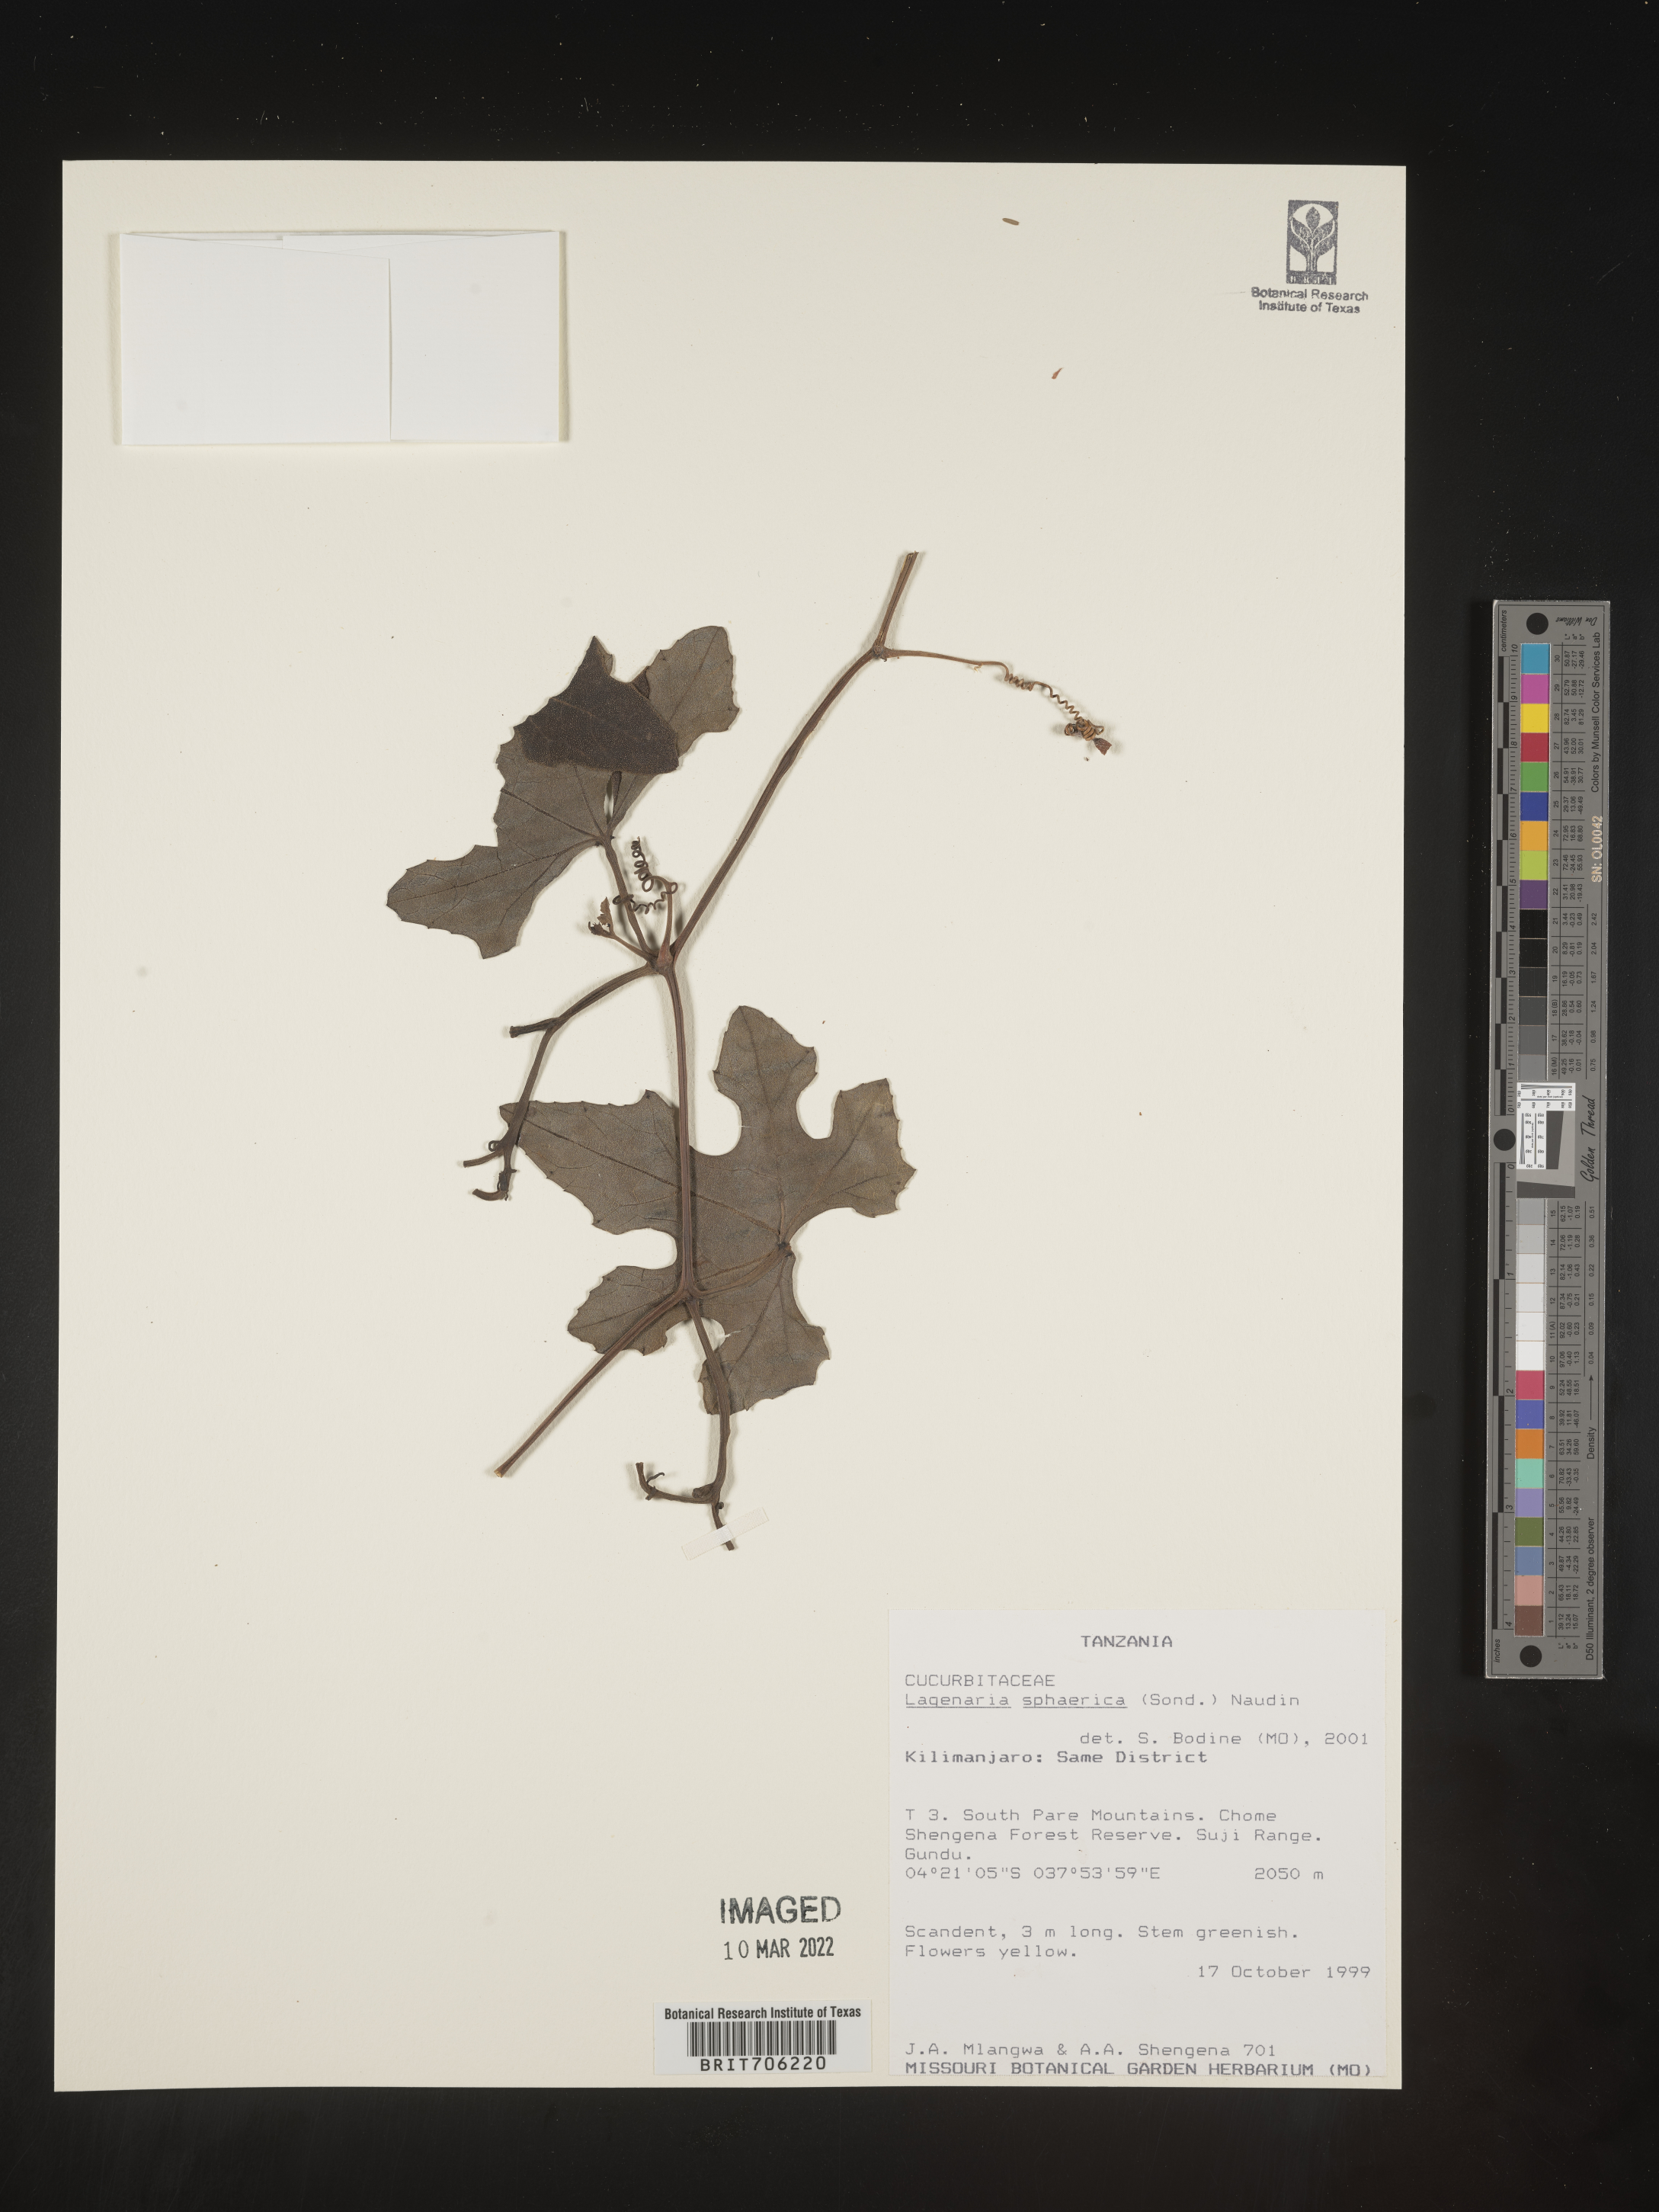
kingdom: Plantae
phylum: Tracheophyta
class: Magnoliopsida
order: Cucurbitales
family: Cucurbitaceae
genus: Lagenaria
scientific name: Lagenaria
